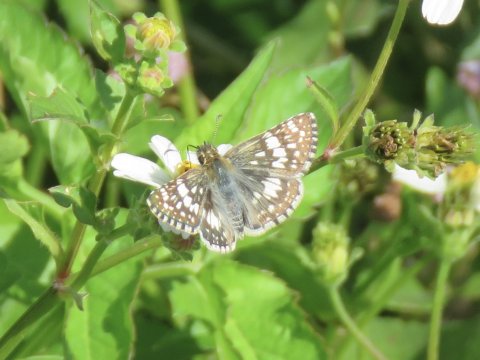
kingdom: Animalia
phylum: Arthropoda
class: Insecta
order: Lepidoptera
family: Hesperiidae
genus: Pyrgus
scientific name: Pyrgus communis
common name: White Checkered-Skipper
